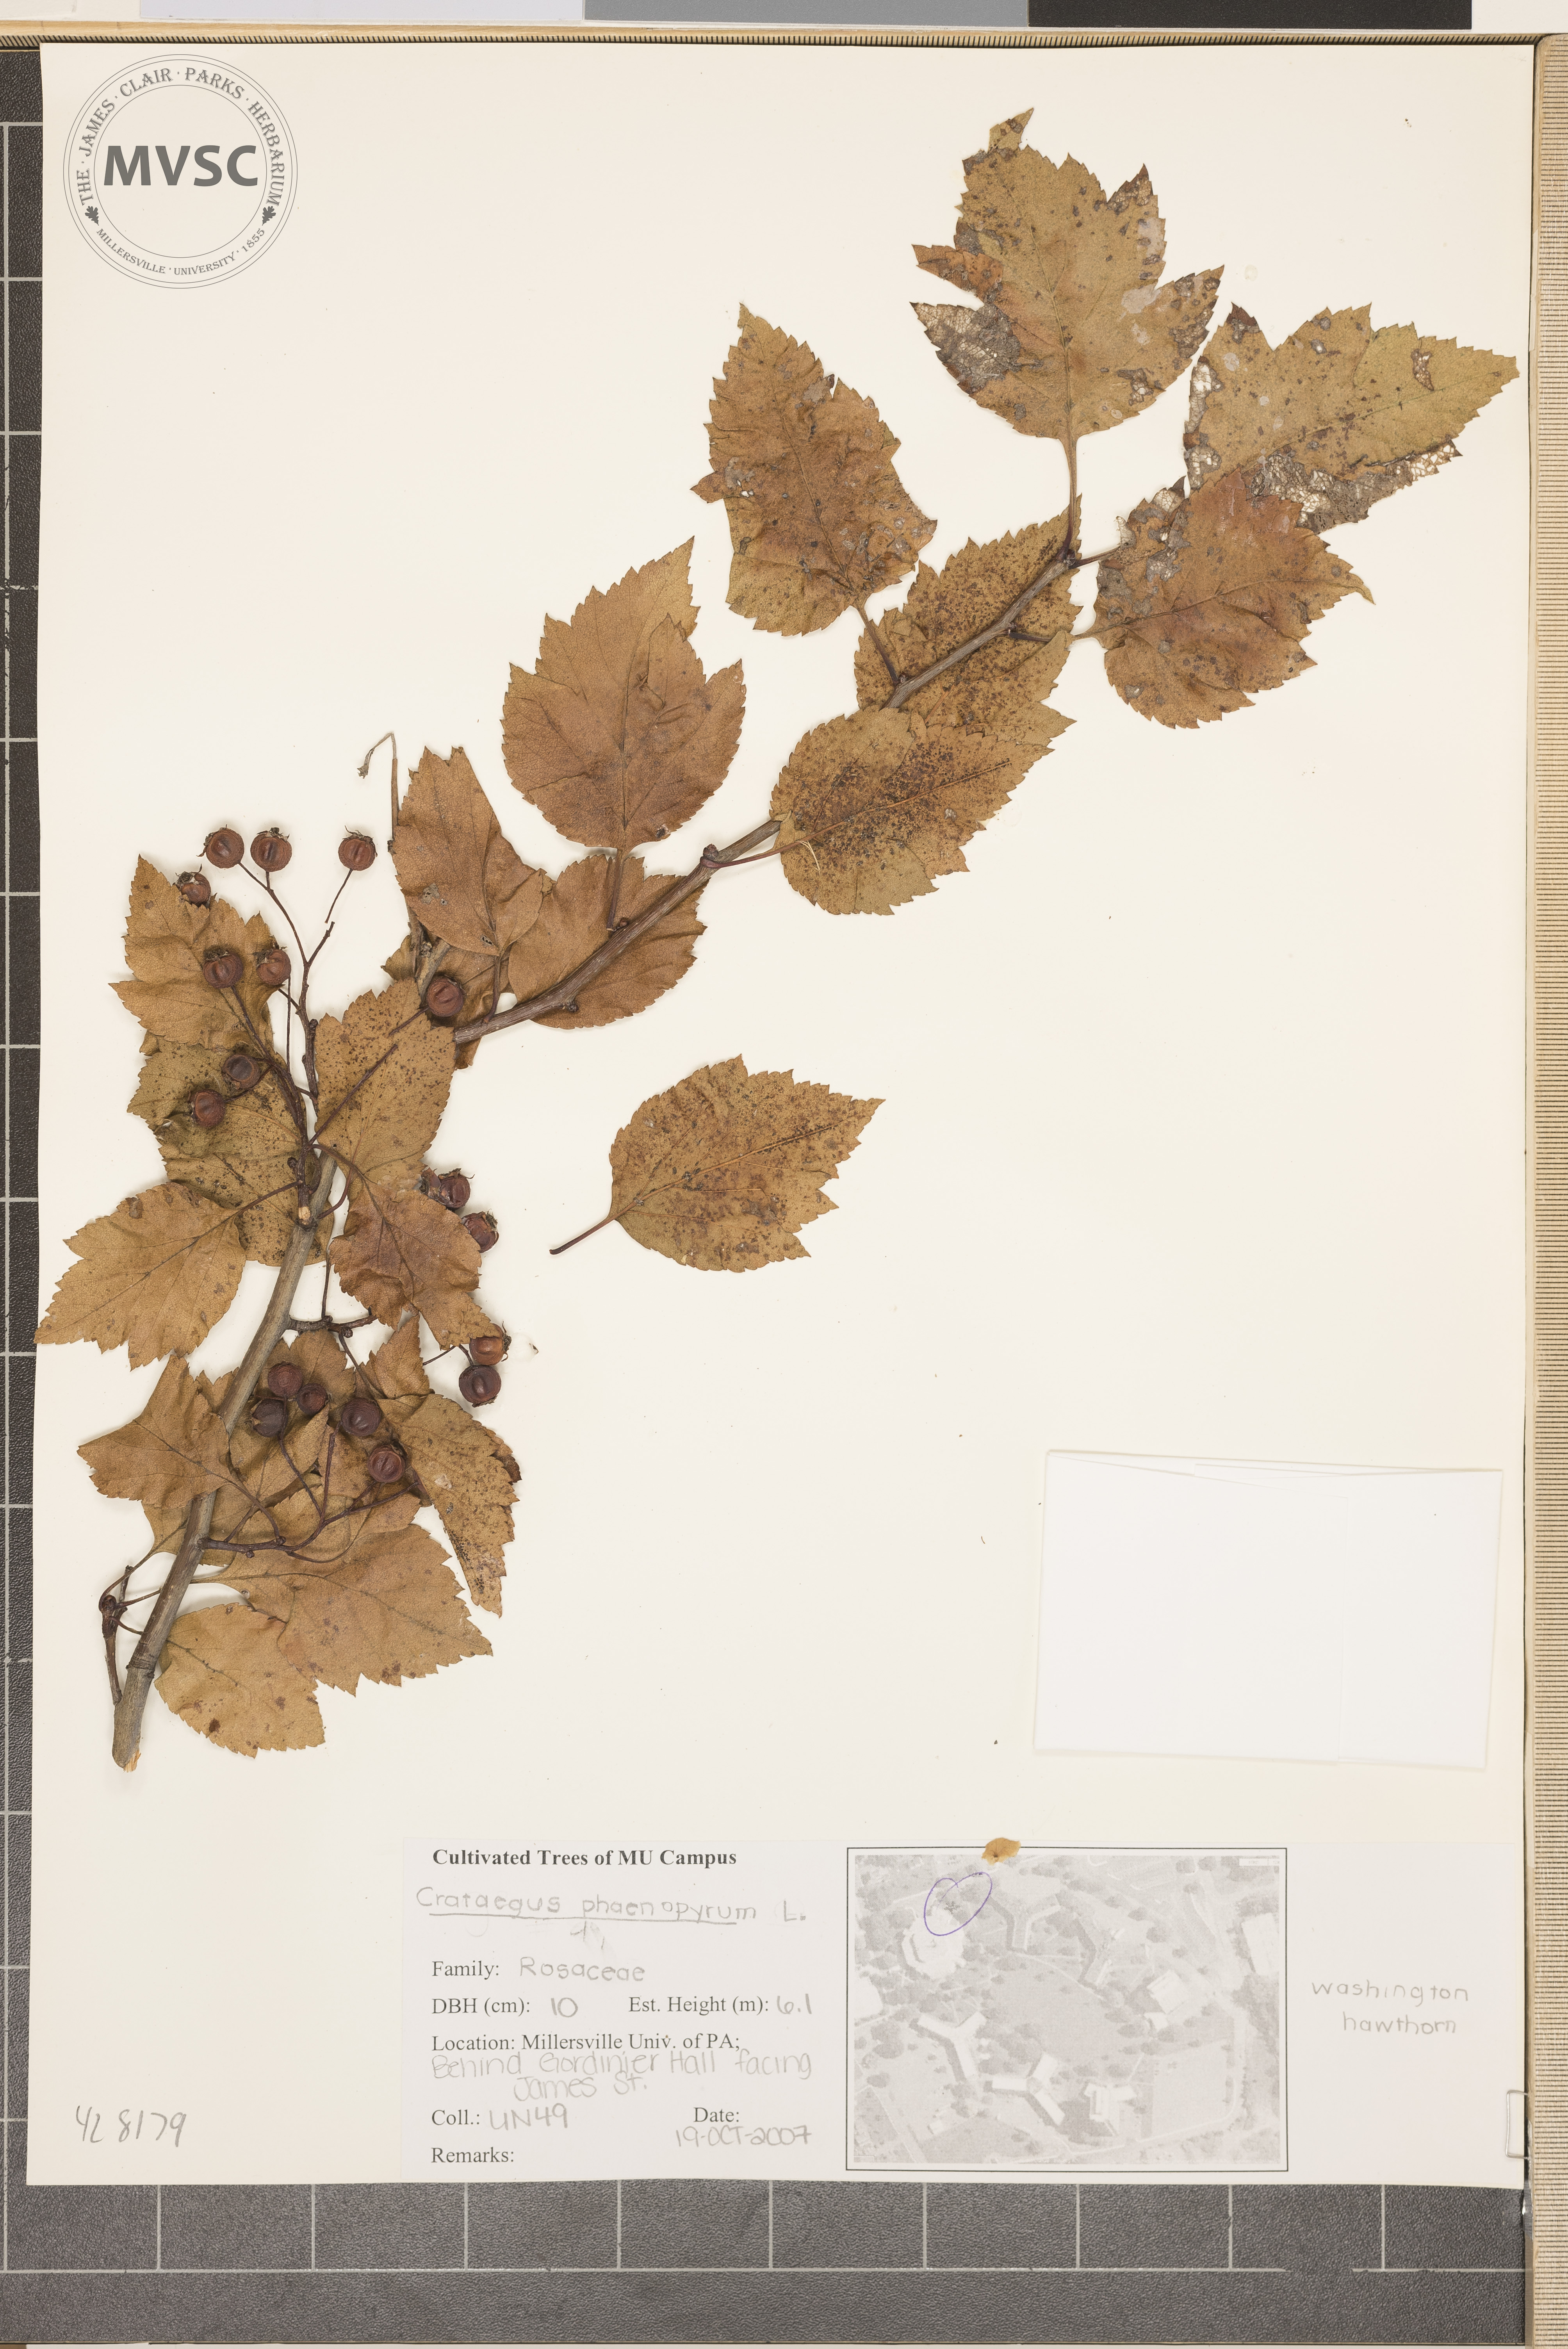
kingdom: Plantae
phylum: Tracheophyta
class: Magnoliopsida
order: Rosales
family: Rosaceae
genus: Crataegus
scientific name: Crataegus phaenopyrum
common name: Hawthorn
